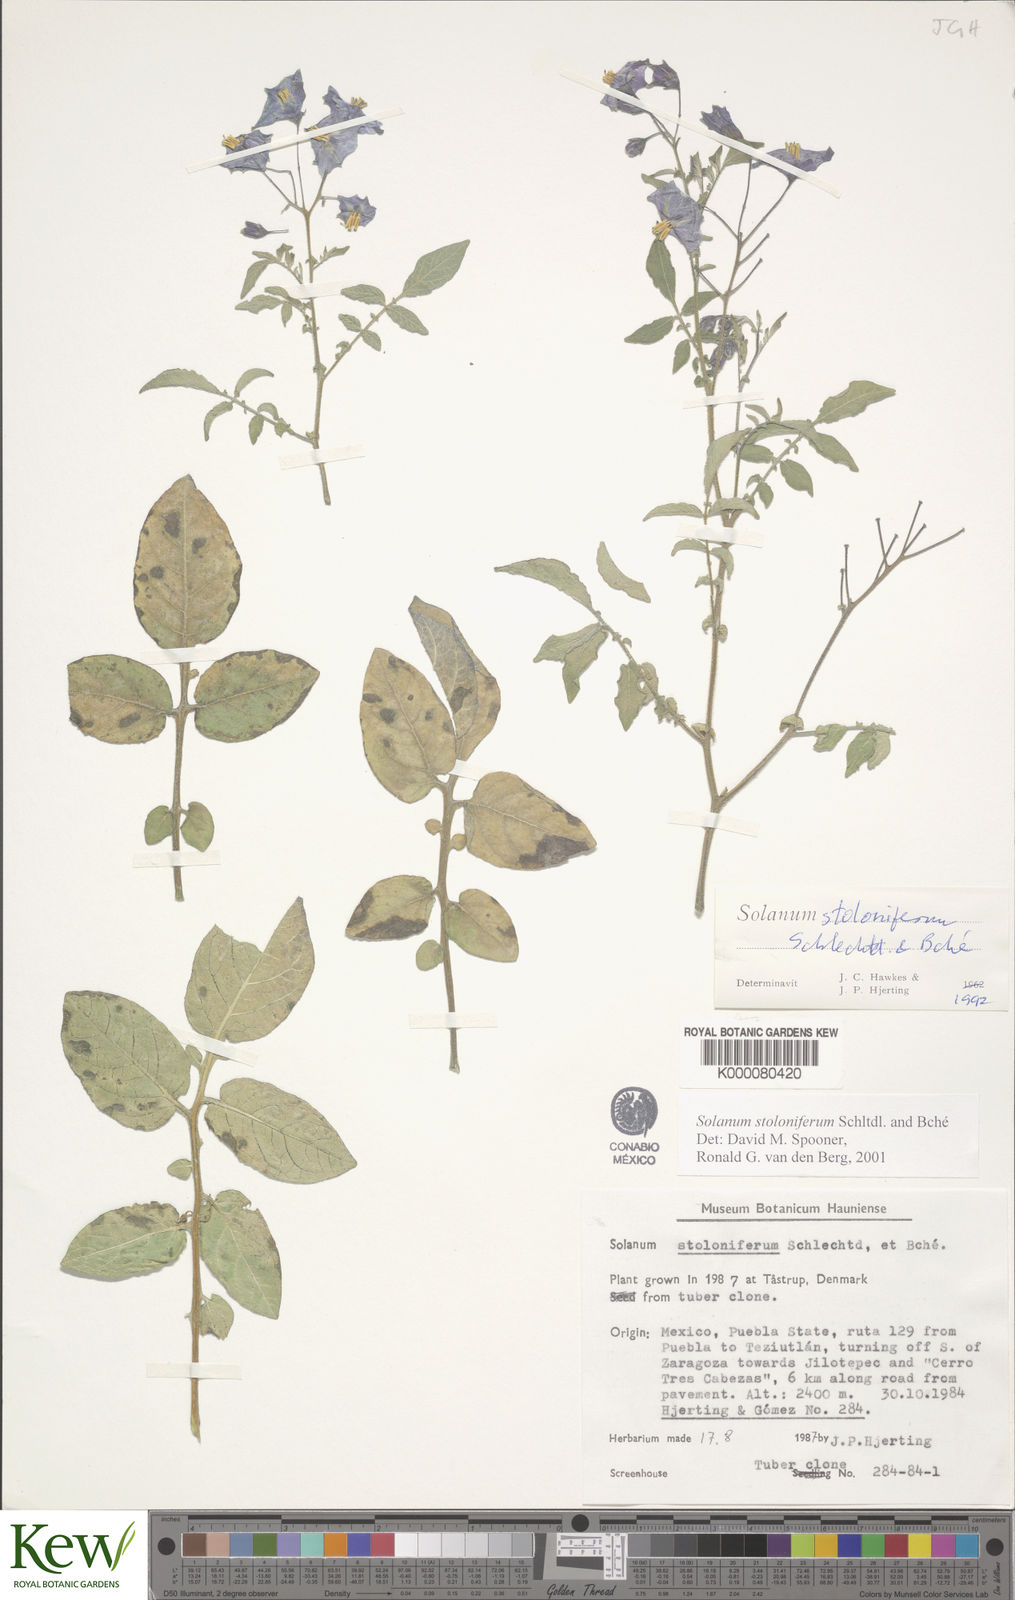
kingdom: Plantae
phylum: Tracheophyta
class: Magnoliopsida
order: Solanales
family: Solanaceae
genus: Solanum
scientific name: Solanum stoloniferum
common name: Fendler's nighshade
